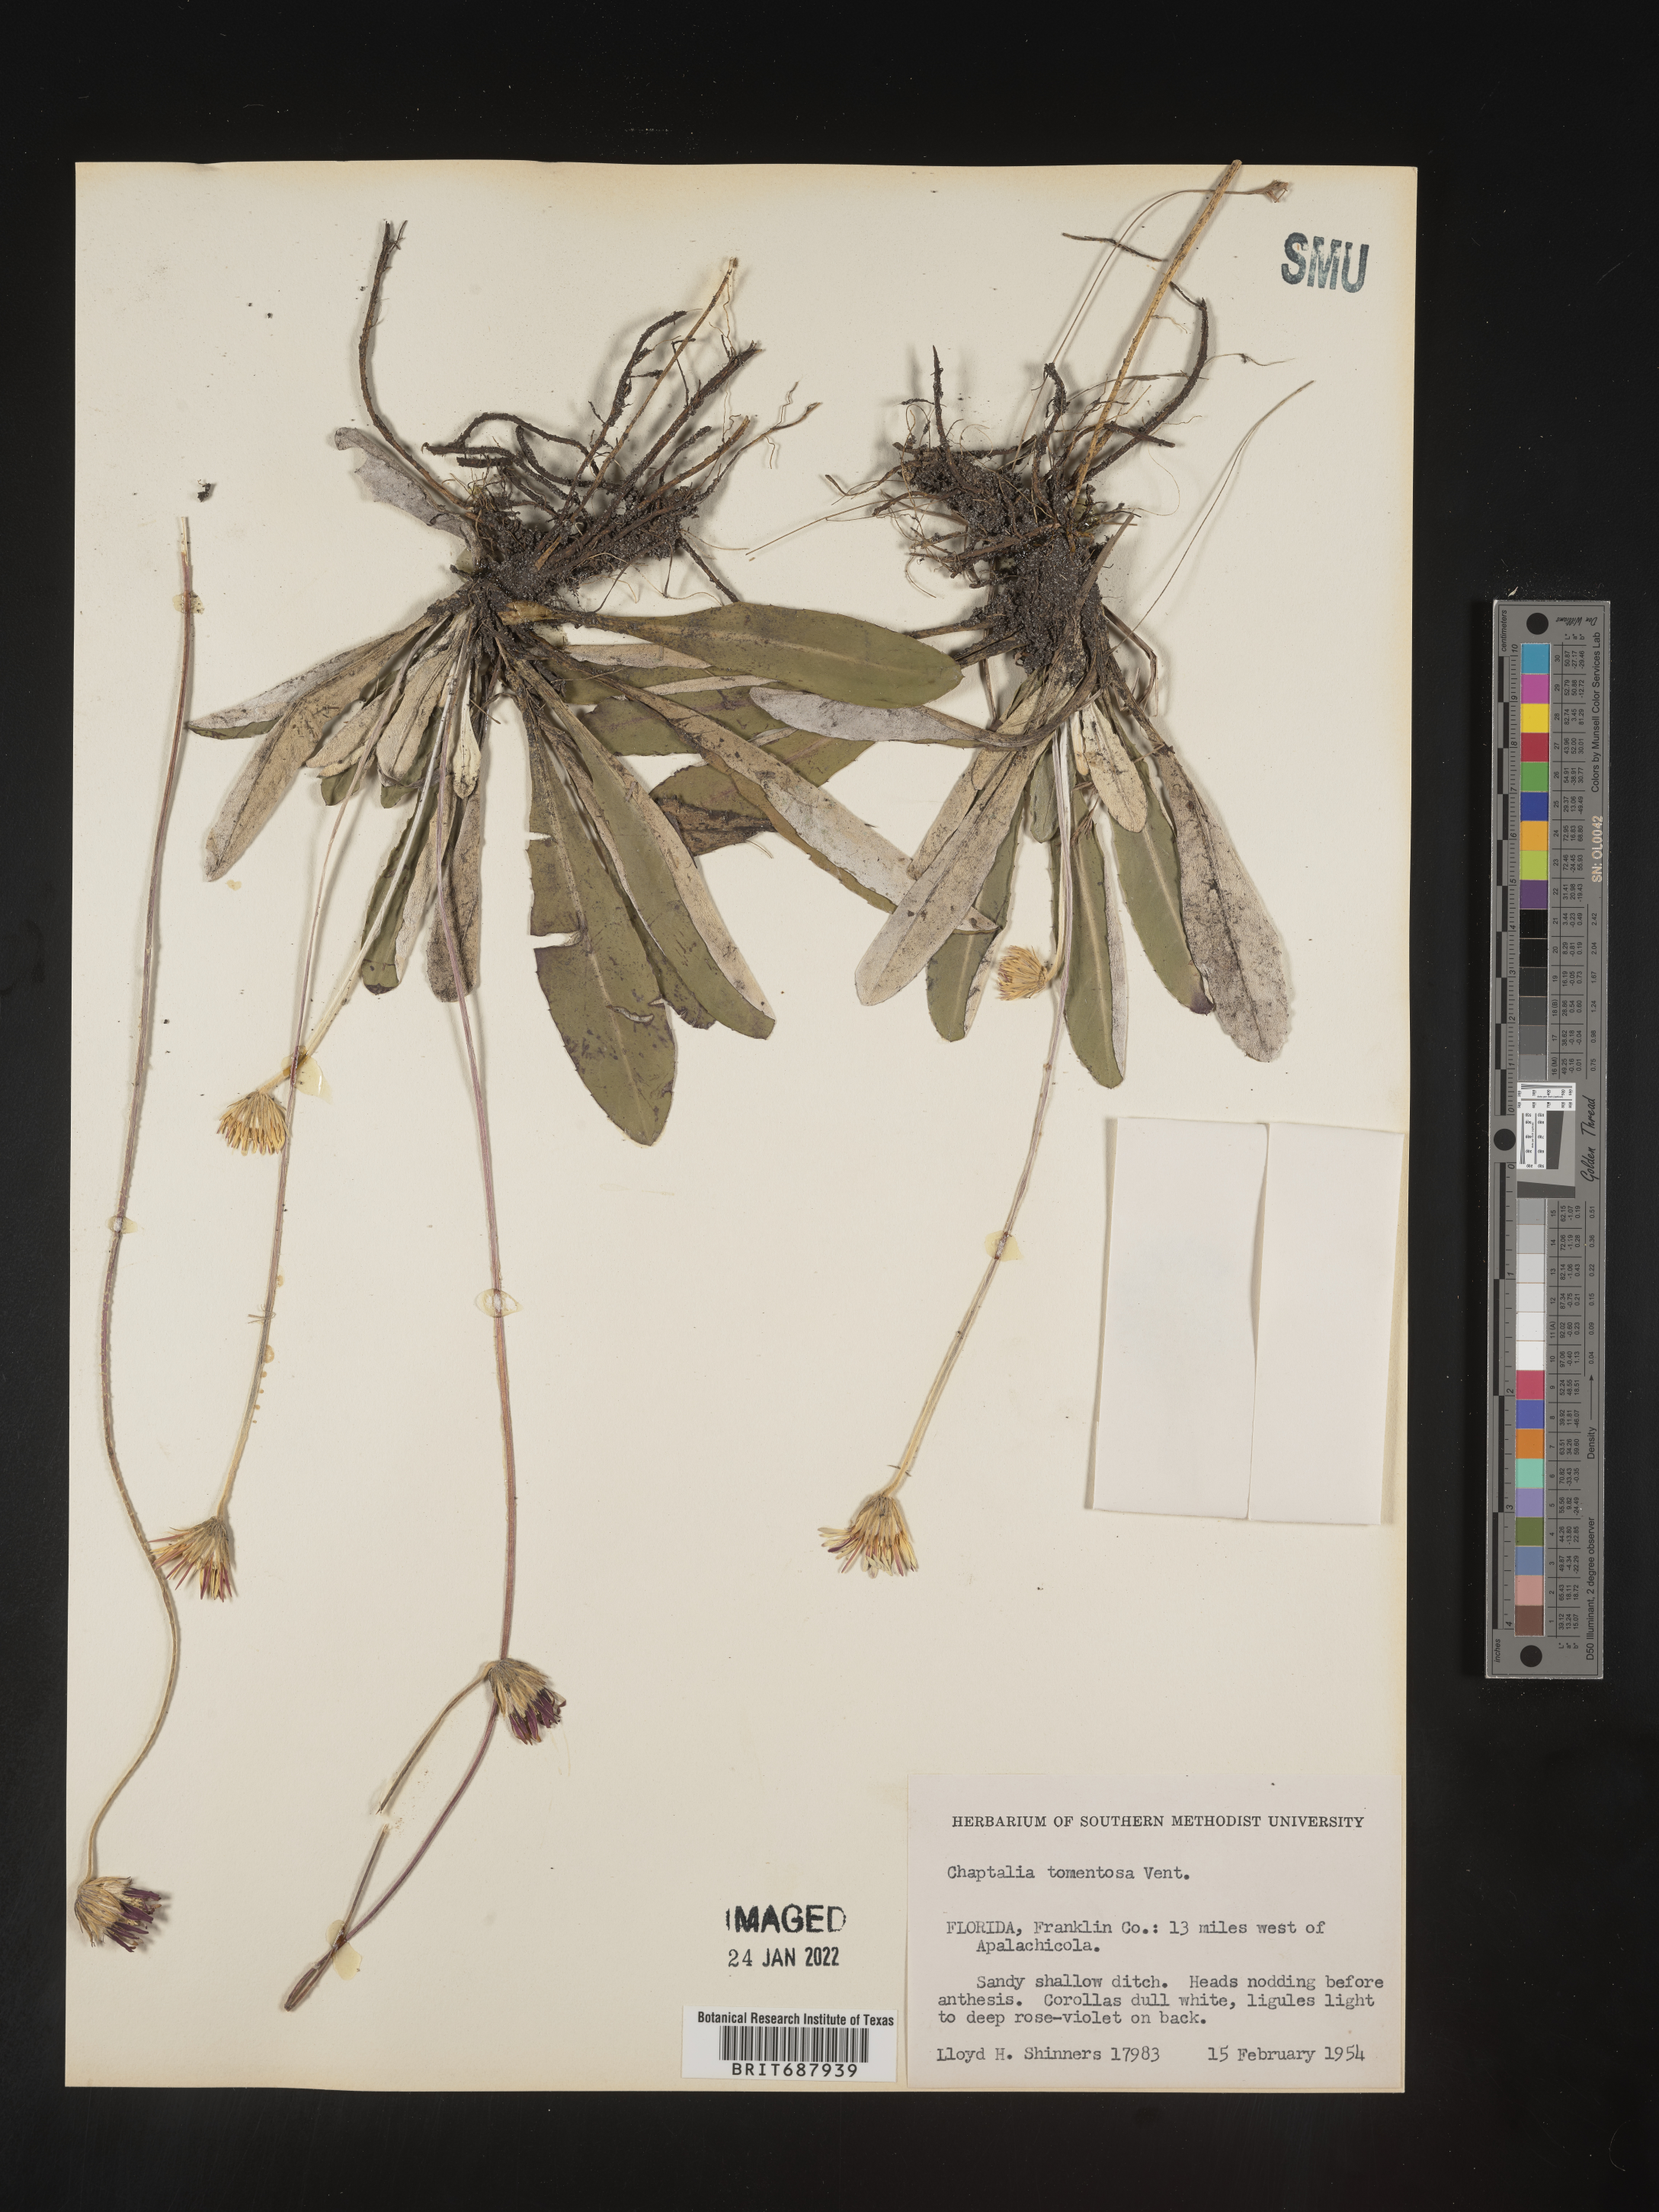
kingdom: Plantae
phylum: Tracheophyta
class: Magnoliopsida
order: Asterales
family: Asteraceae
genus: Chaptalia
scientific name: Chaptalia tomentosa
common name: Woolly sunbonnet
